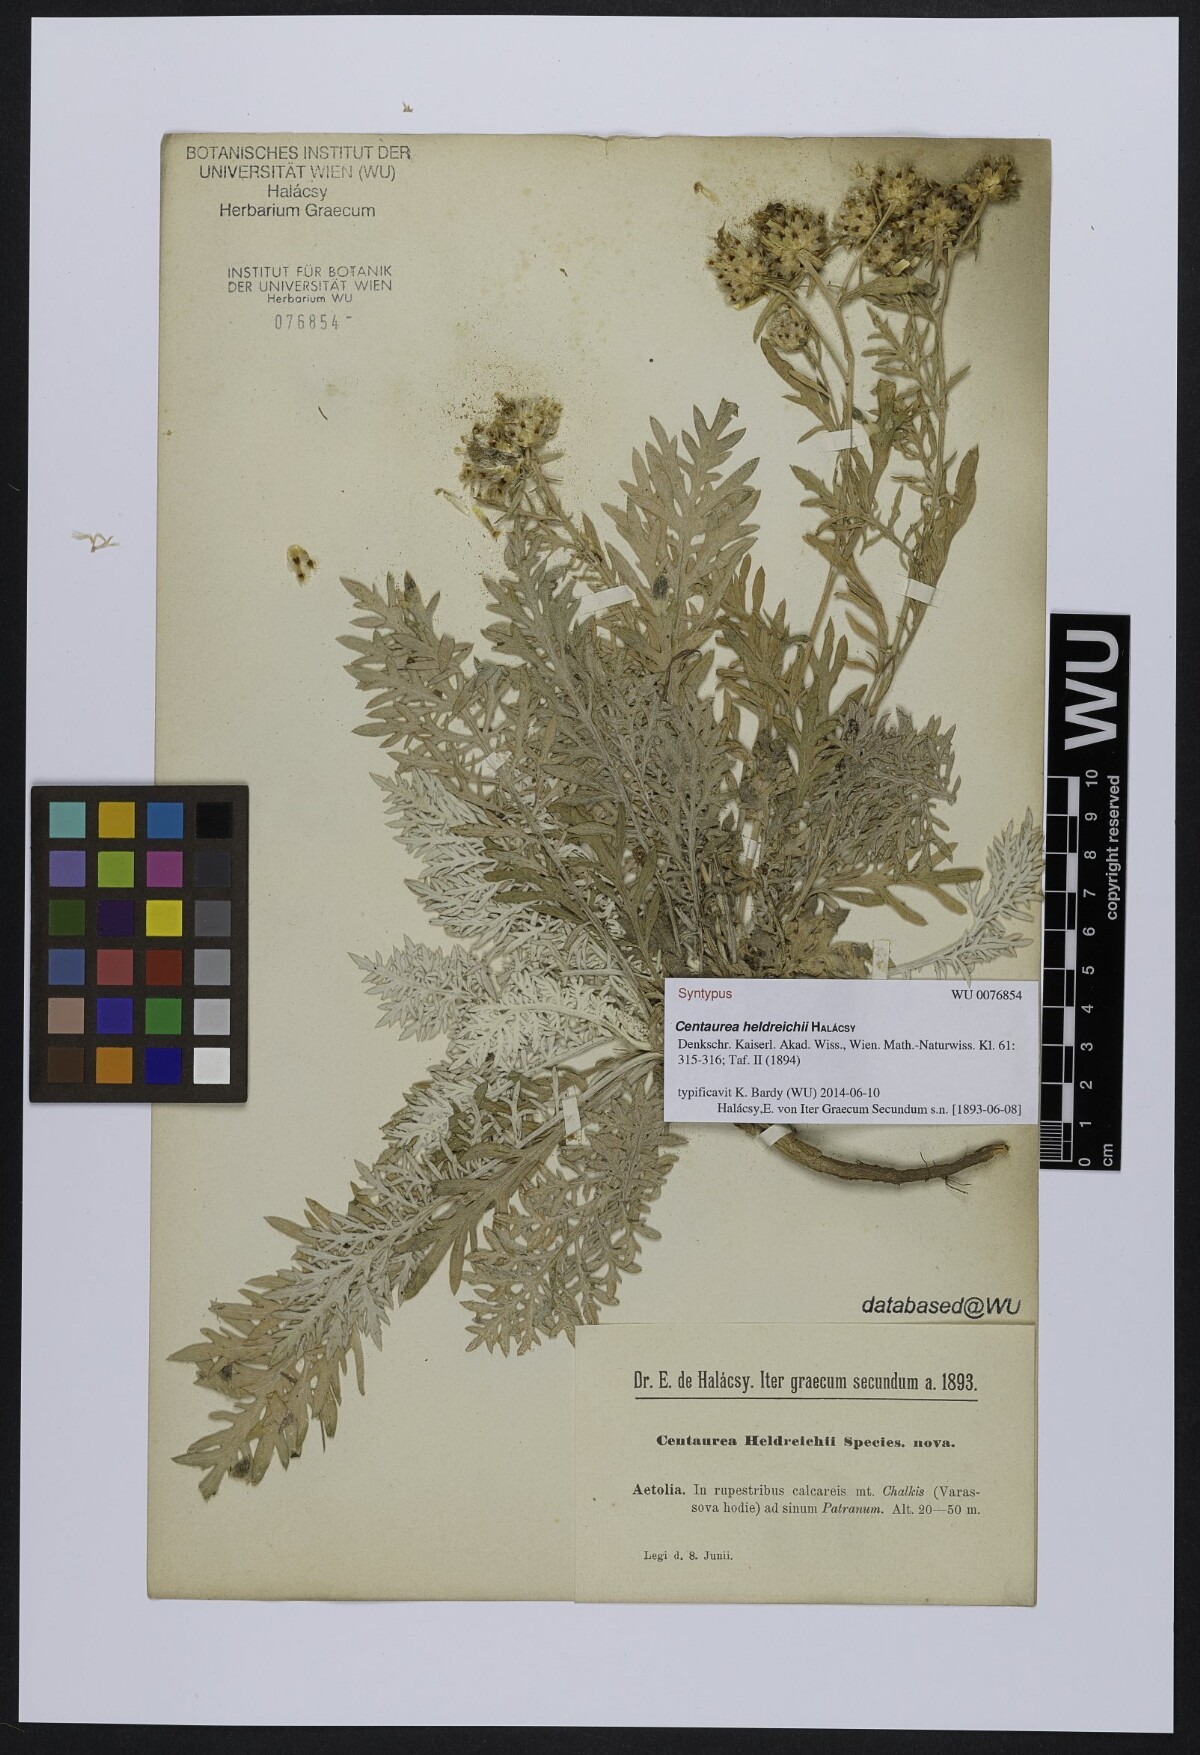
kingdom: Plantae
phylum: Tracheophyta
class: Magnoliopsida
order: Asterales
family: Asteraceae
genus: Centaurea
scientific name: Centaurea heldreichii
